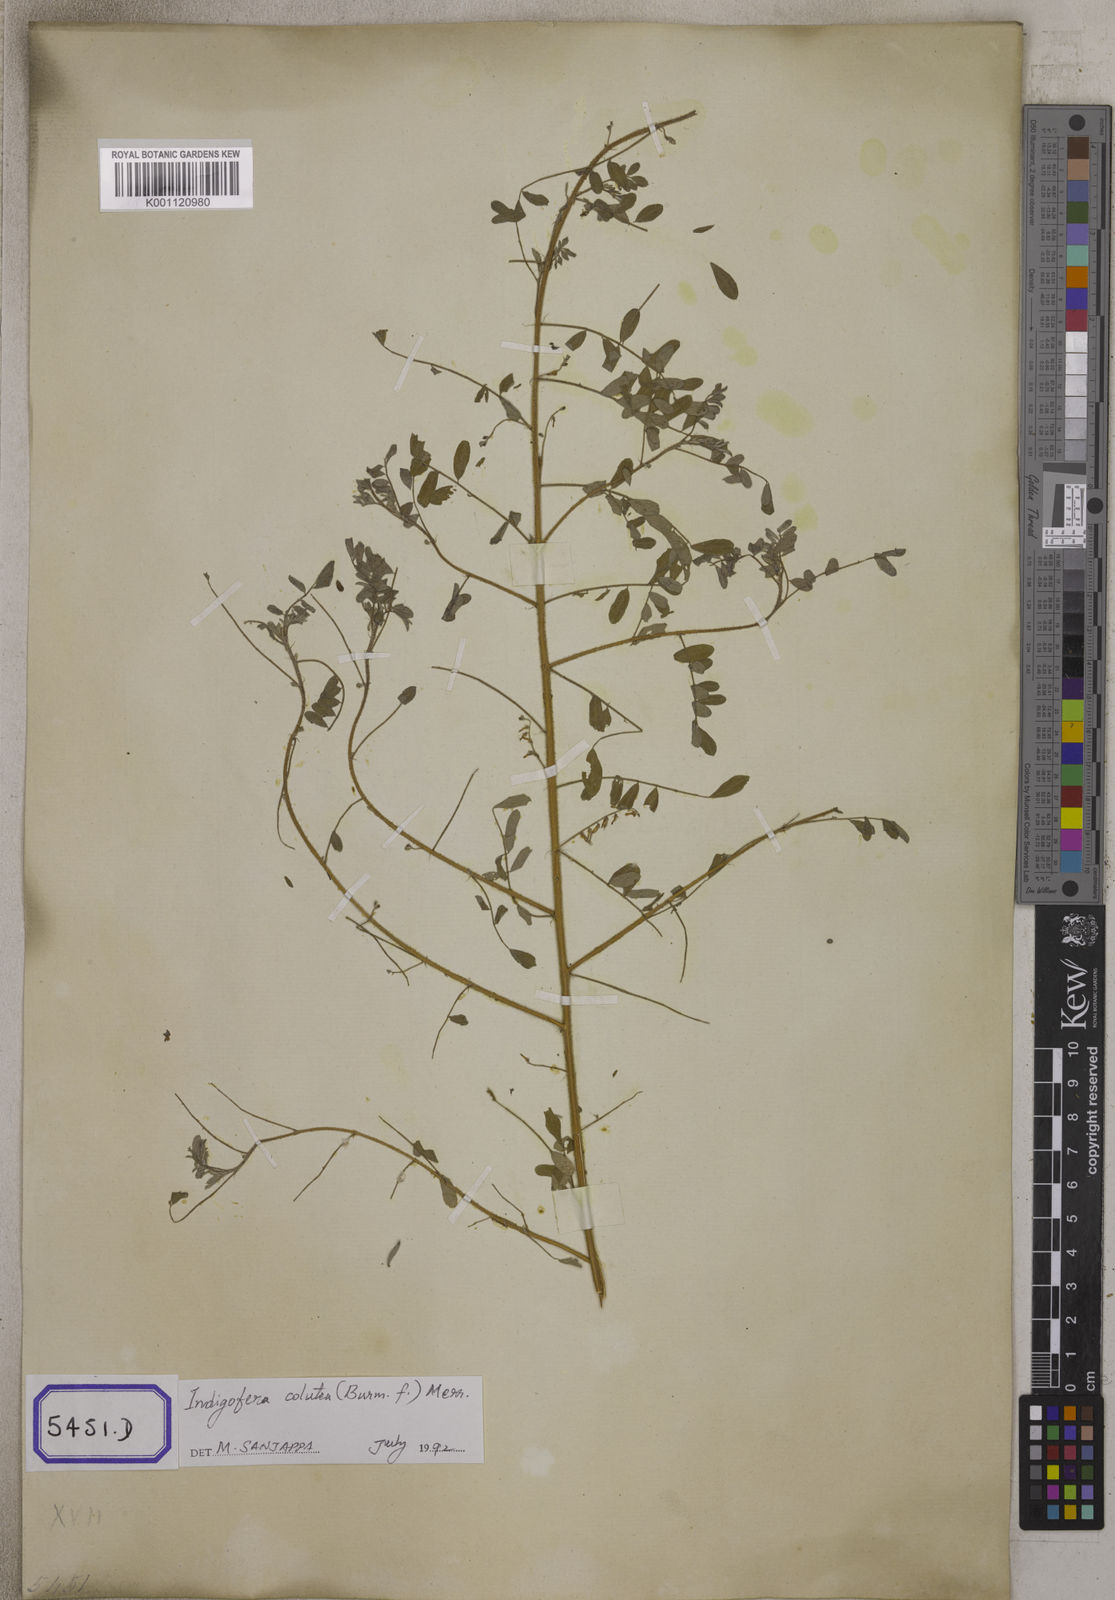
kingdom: Plantae
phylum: Tracheophyta
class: Magnoliopsida
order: Fabales
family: Fabaceae
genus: Indigofera
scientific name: Indigofera colutea
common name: Rusty indigo
